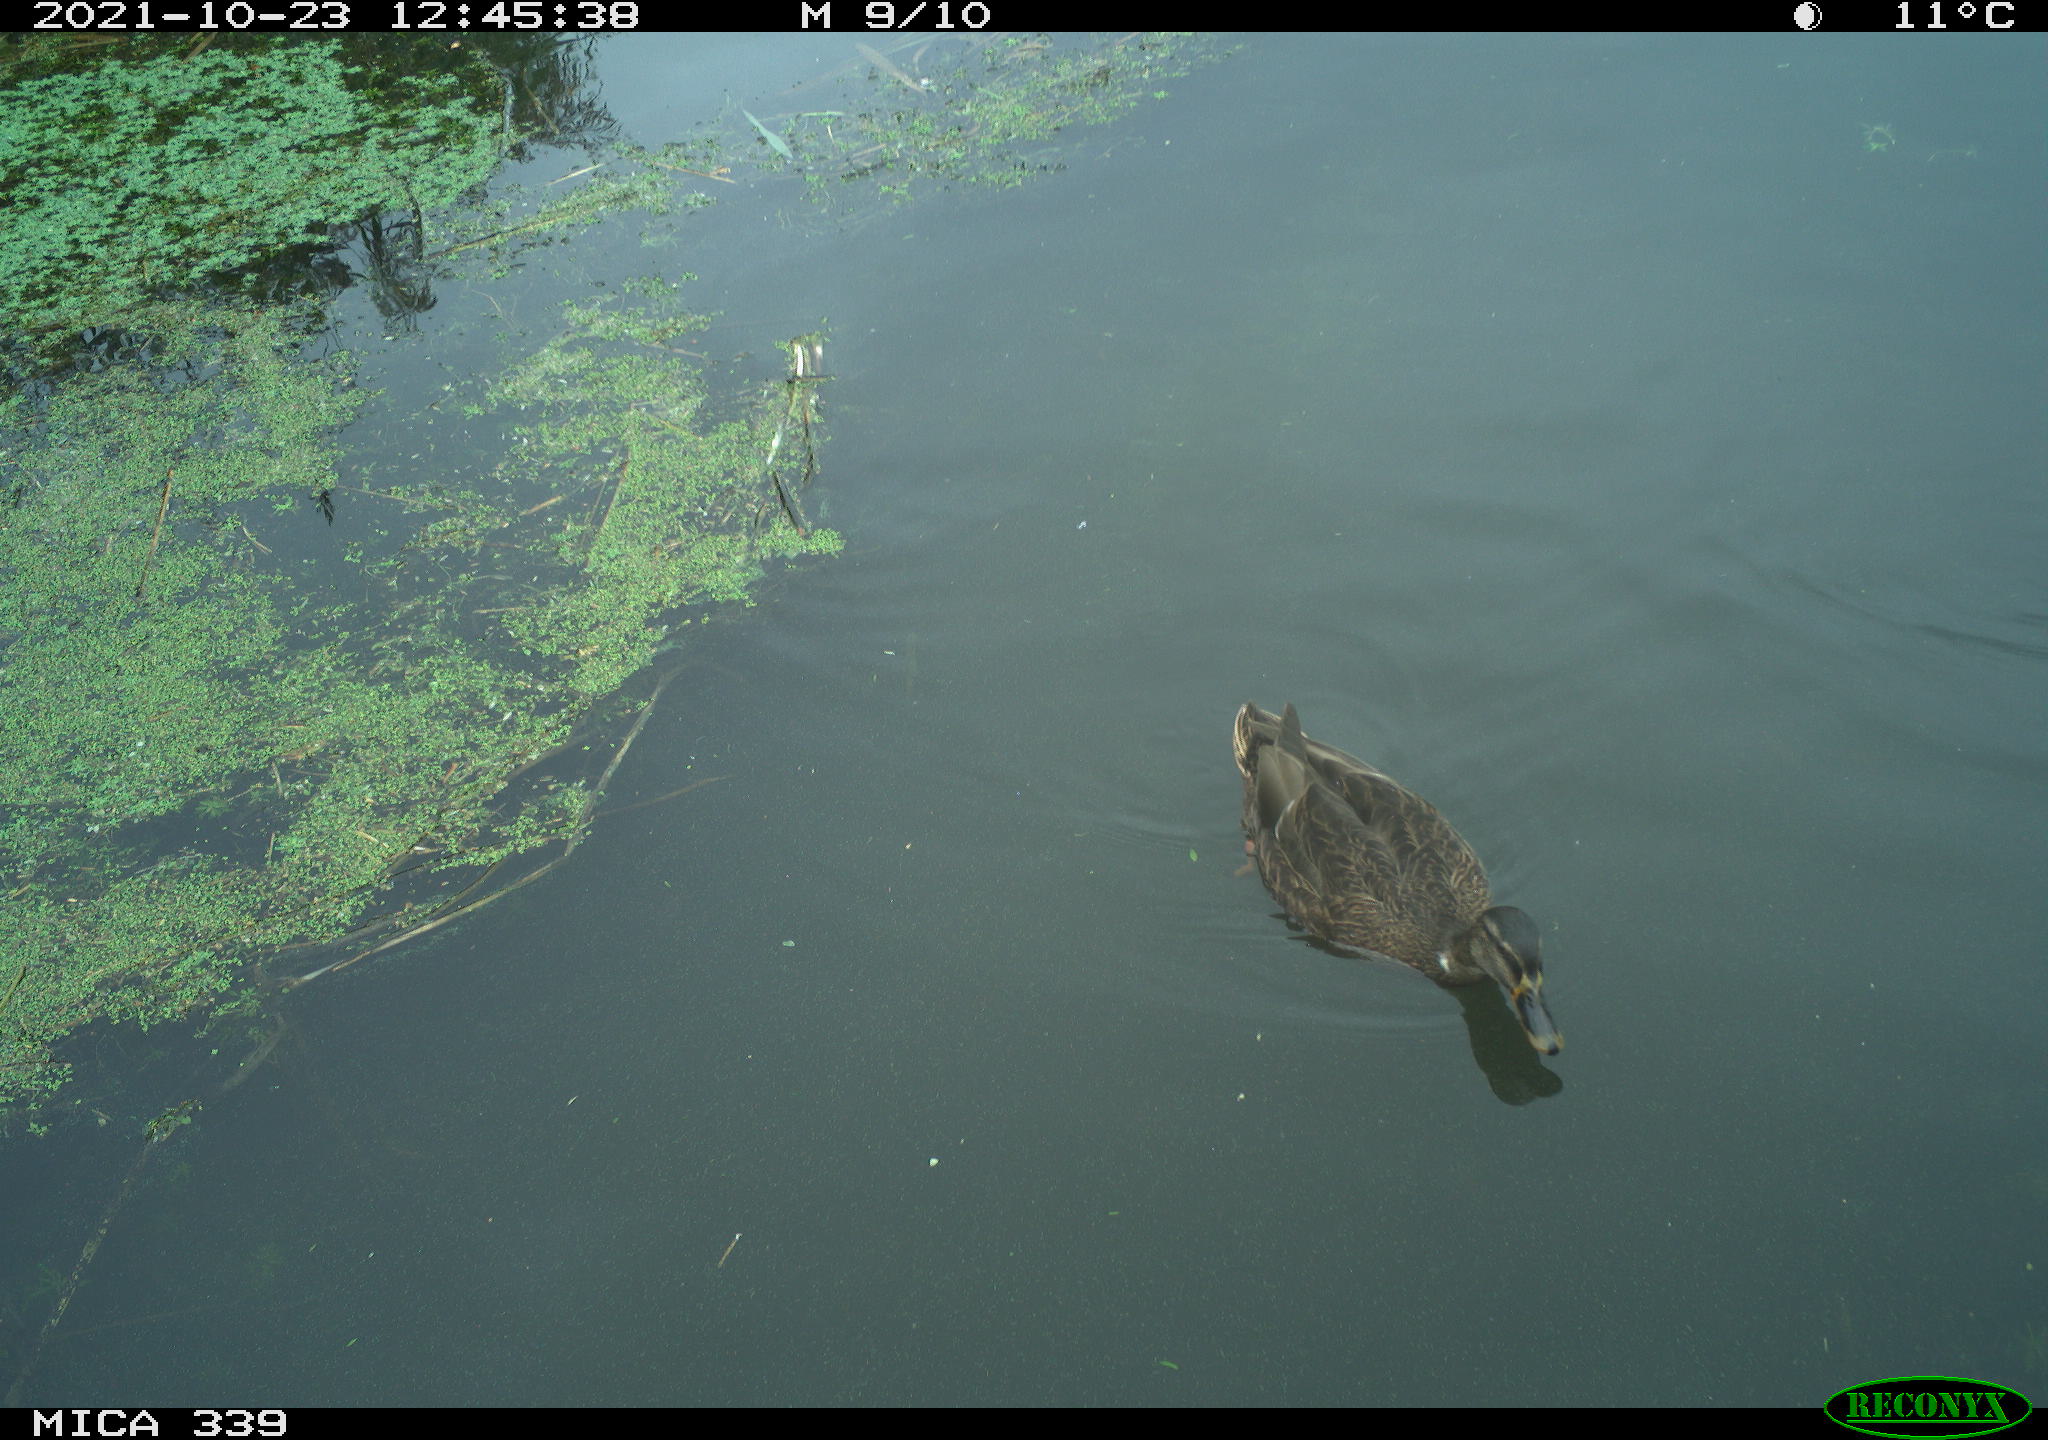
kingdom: Animalia
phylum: Chordata
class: Aves
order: Anseriformes
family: Anatidae
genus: Anas
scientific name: Anas platyrhynchos
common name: Mallard
